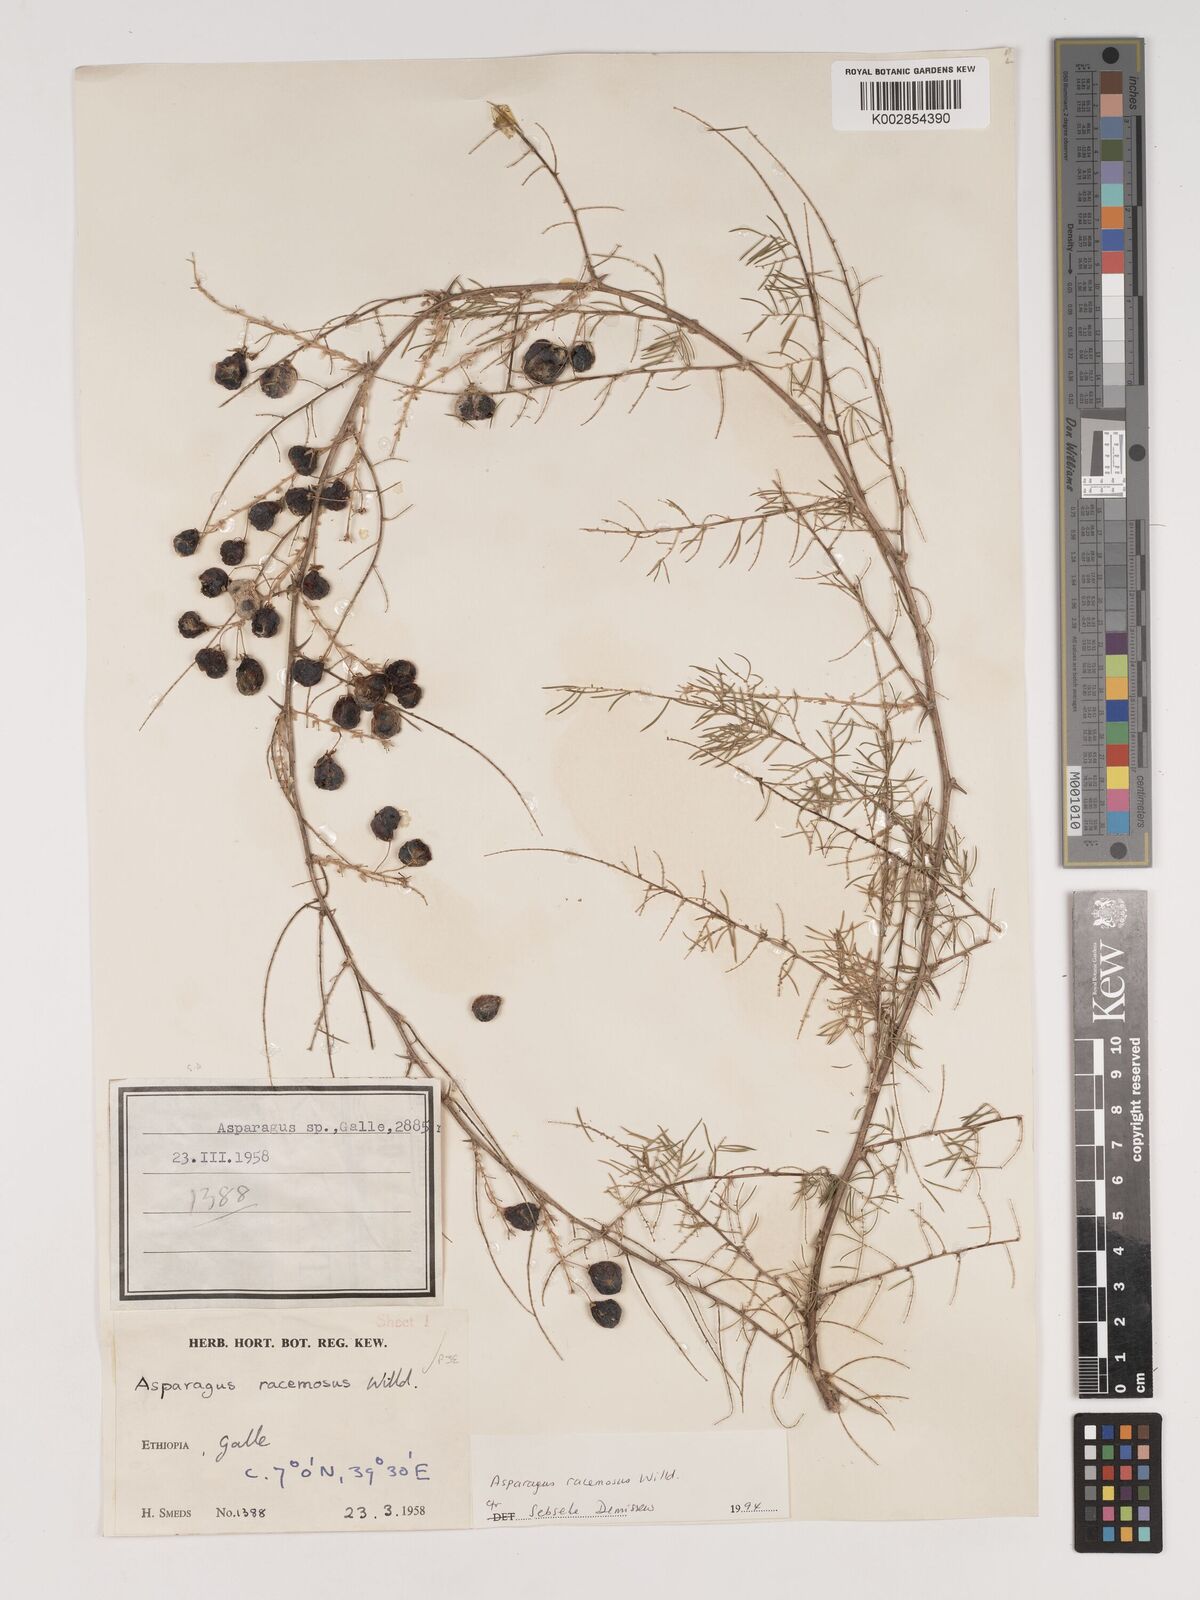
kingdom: Plantae
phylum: Tracheophyta
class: Liliopsida
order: Asparagales
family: Asparagaceae
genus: Asparagus
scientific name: Asparagus racemosus
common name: Asparagus-fern
